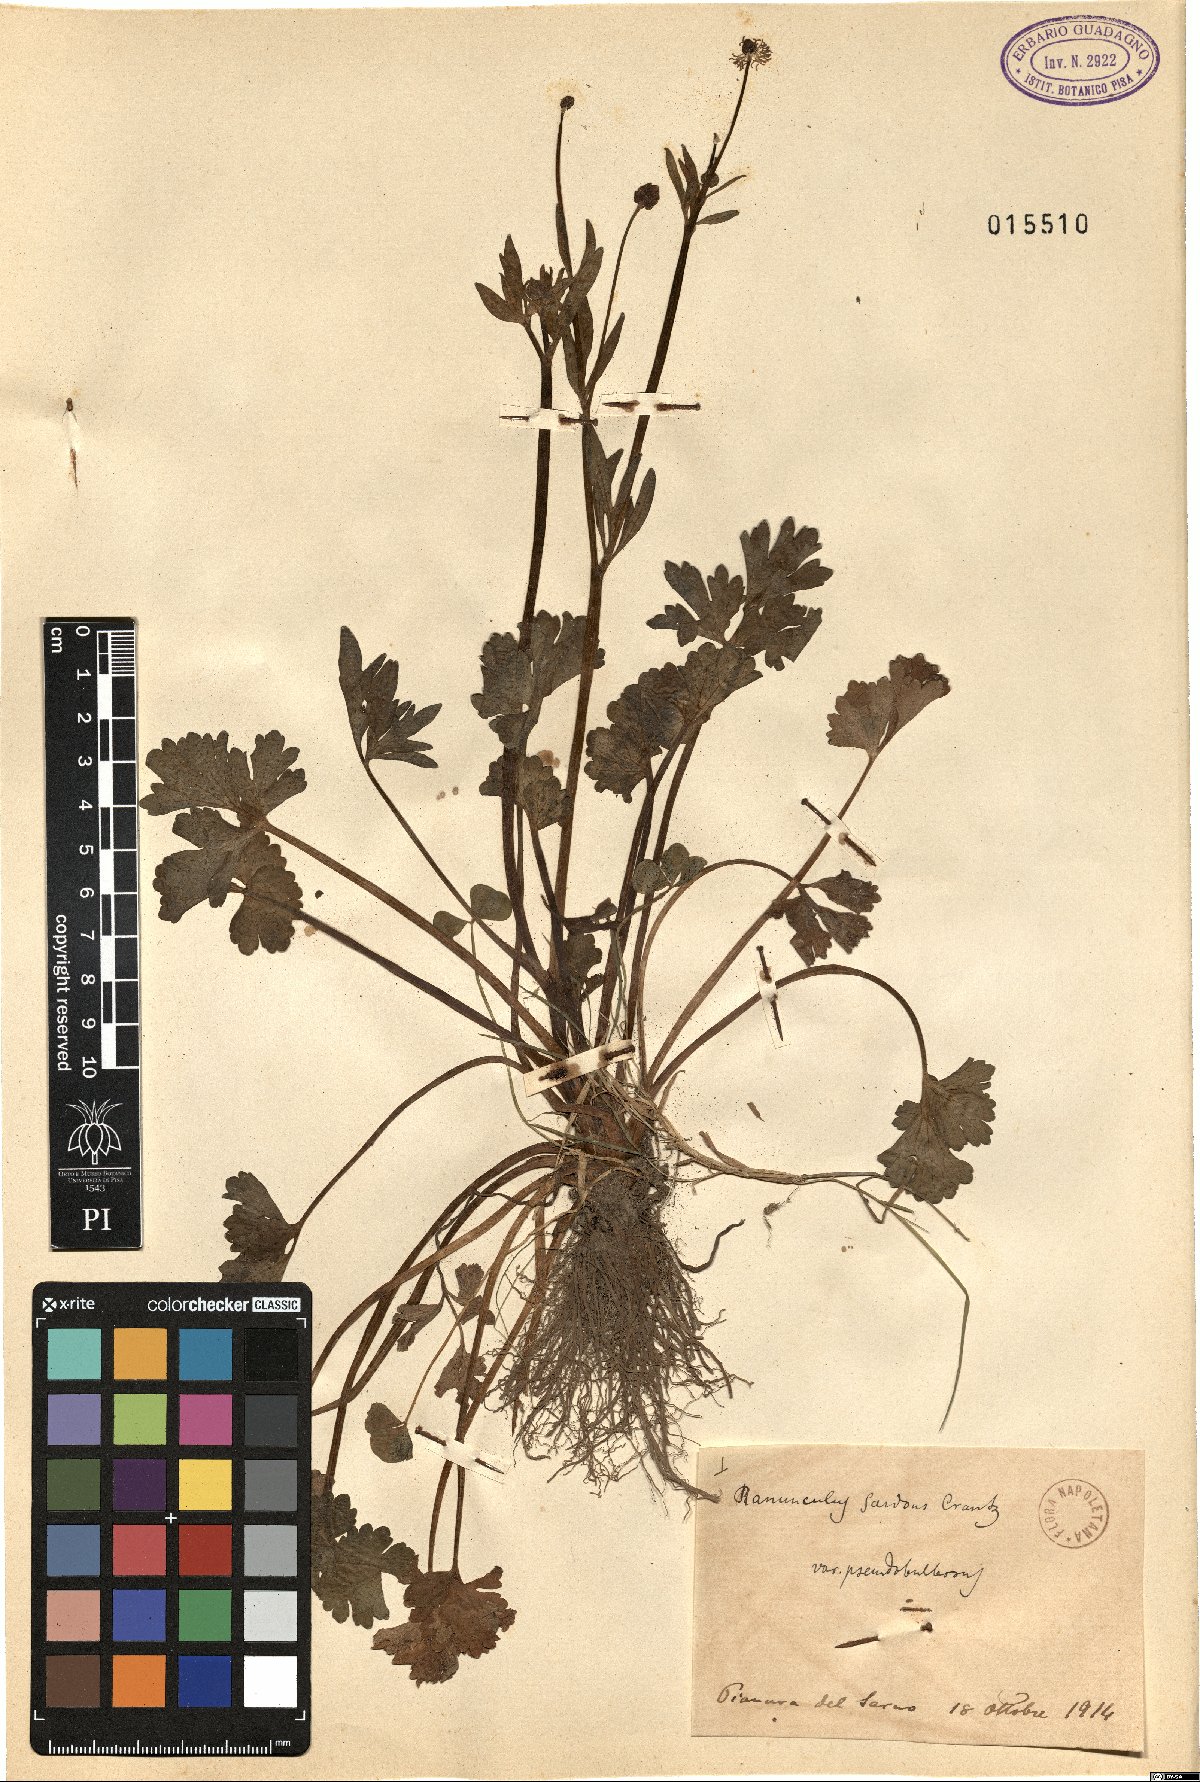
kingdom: Plantae
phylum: Tracheophyta
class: Magnoliopsida
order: Ranunculales
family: Ranunculaceae
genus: Ranunculus
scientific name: Ranunculus sardous
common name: Hairy buttercup
